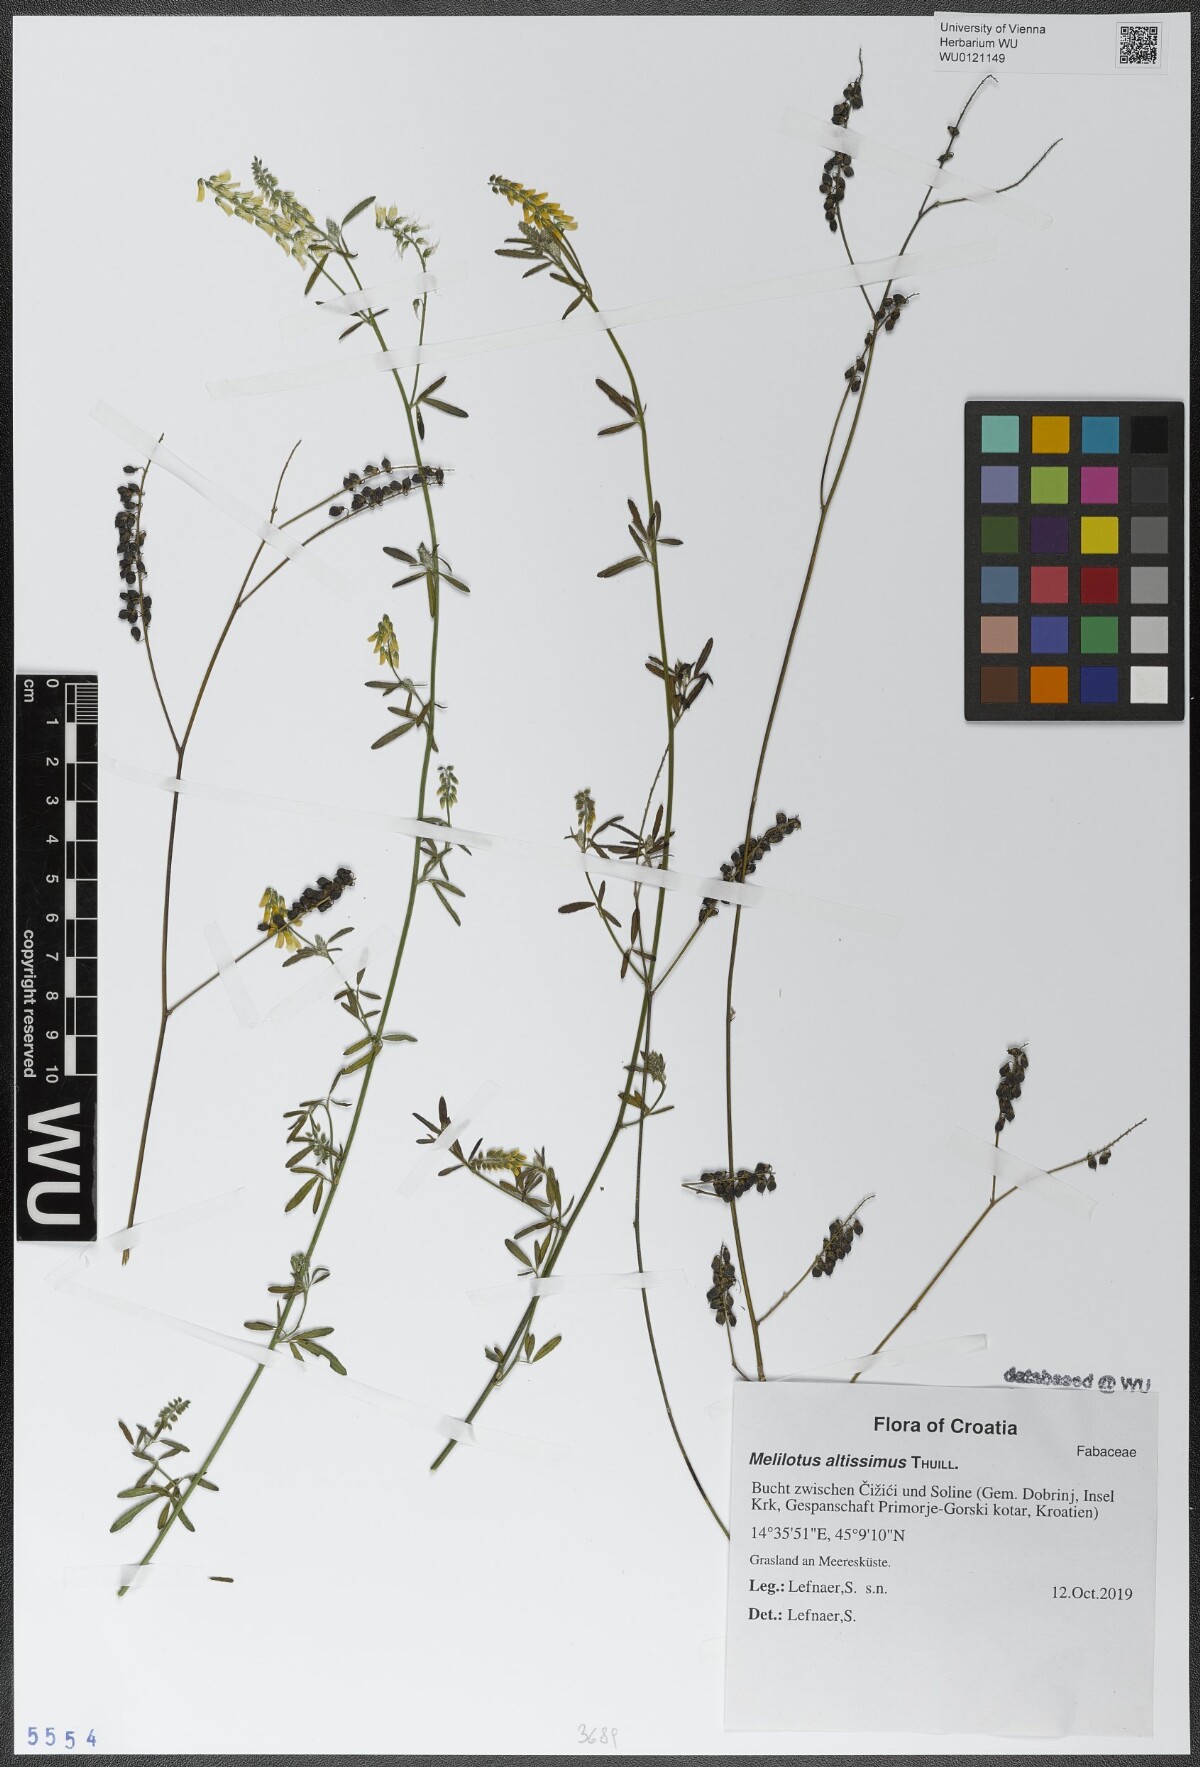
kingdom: Plantae
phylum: Tracheophyta
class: Magnoliopsida
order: Fabales
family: Fabaceae
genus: Melilotus
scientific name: Melilotus altissimus
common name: Tall melilot
